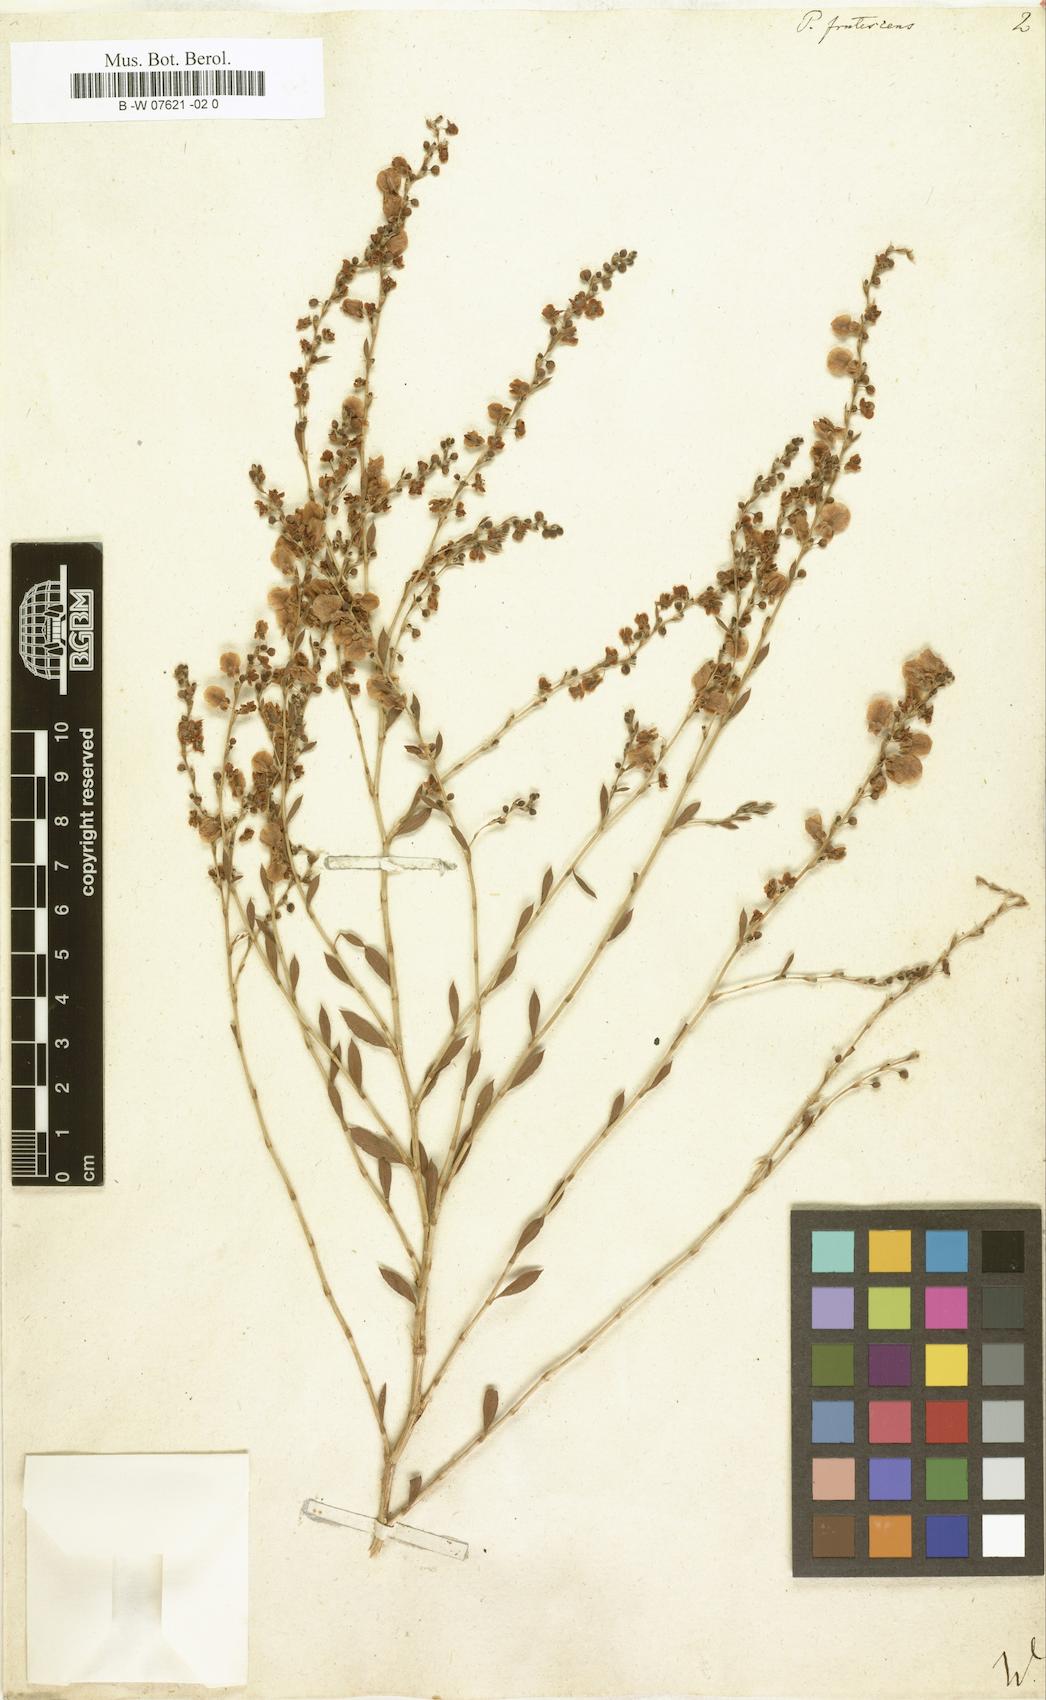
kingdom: Plantae
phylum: Tracheophyta
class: Magnoliopsida
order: Caryophyllales
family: Polygonaceae
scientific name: Polygonaceae
